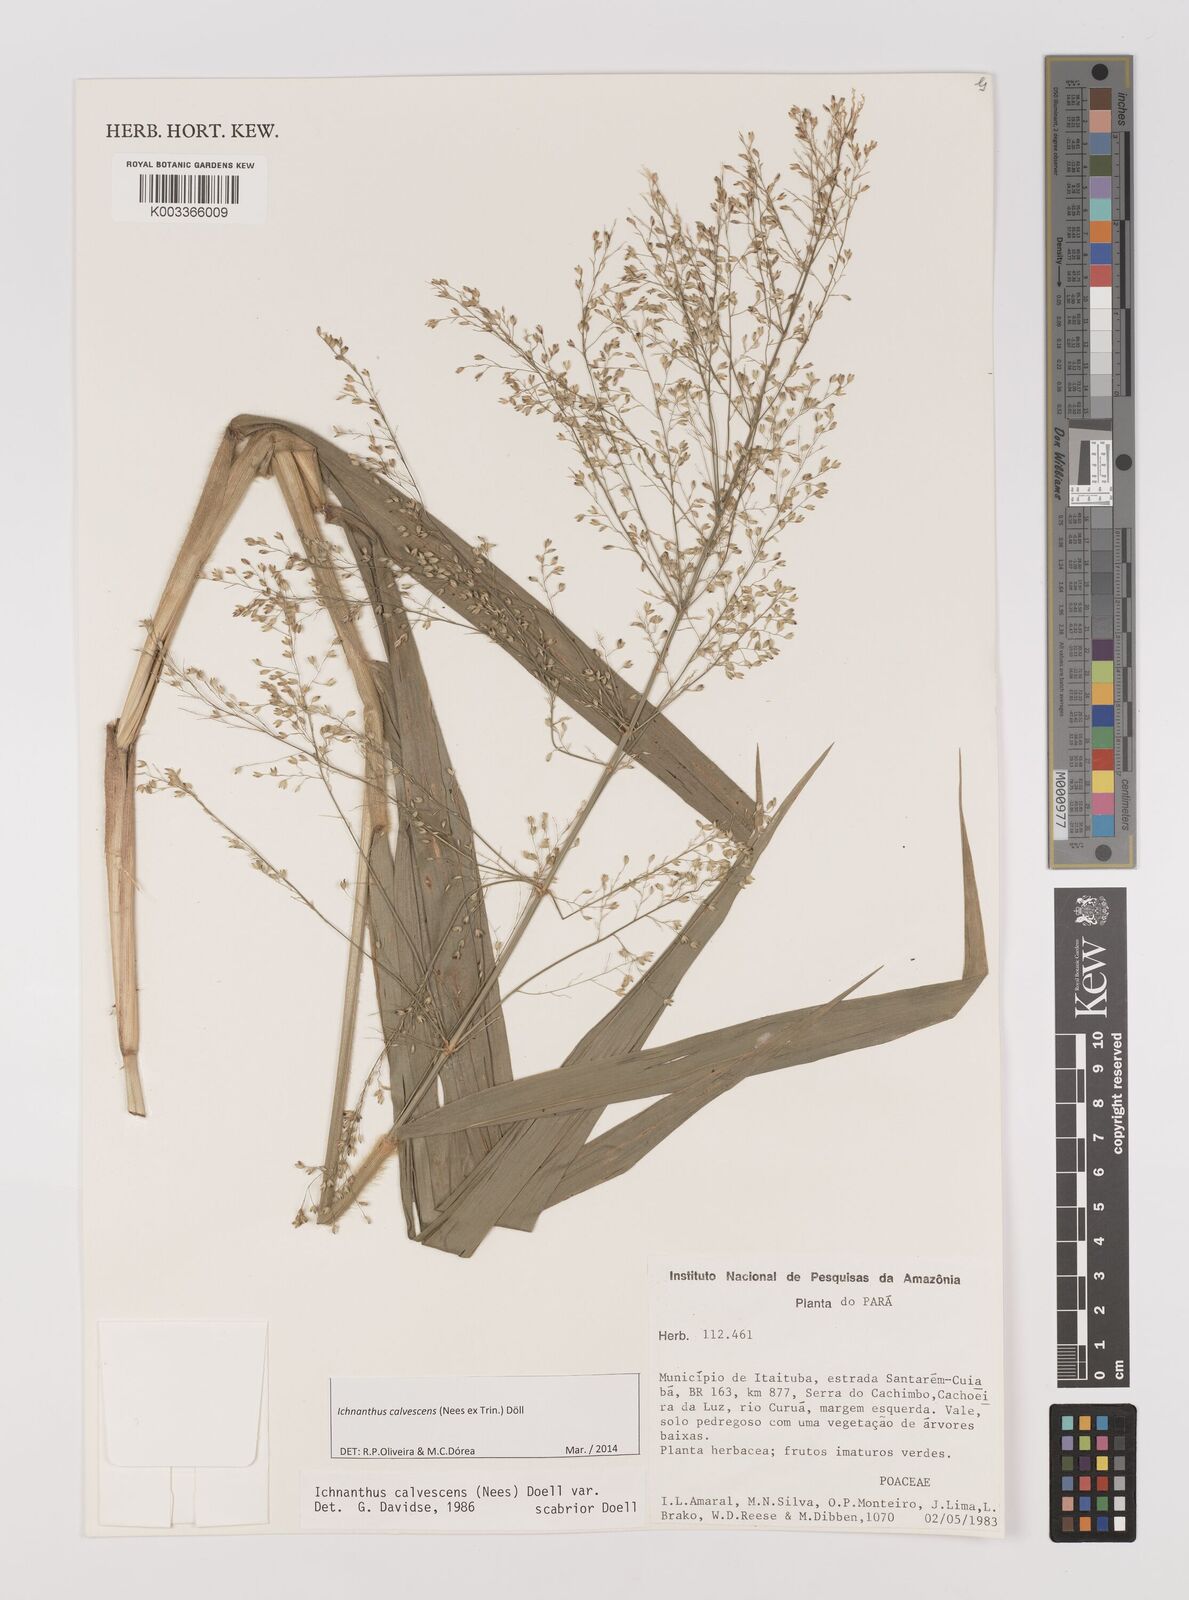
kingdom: Plantae
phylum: Tracheophyta
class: Liliopsida
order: Poales
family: Poaceae
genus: Ichnanthus
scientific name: Ichnanthus calvescens
